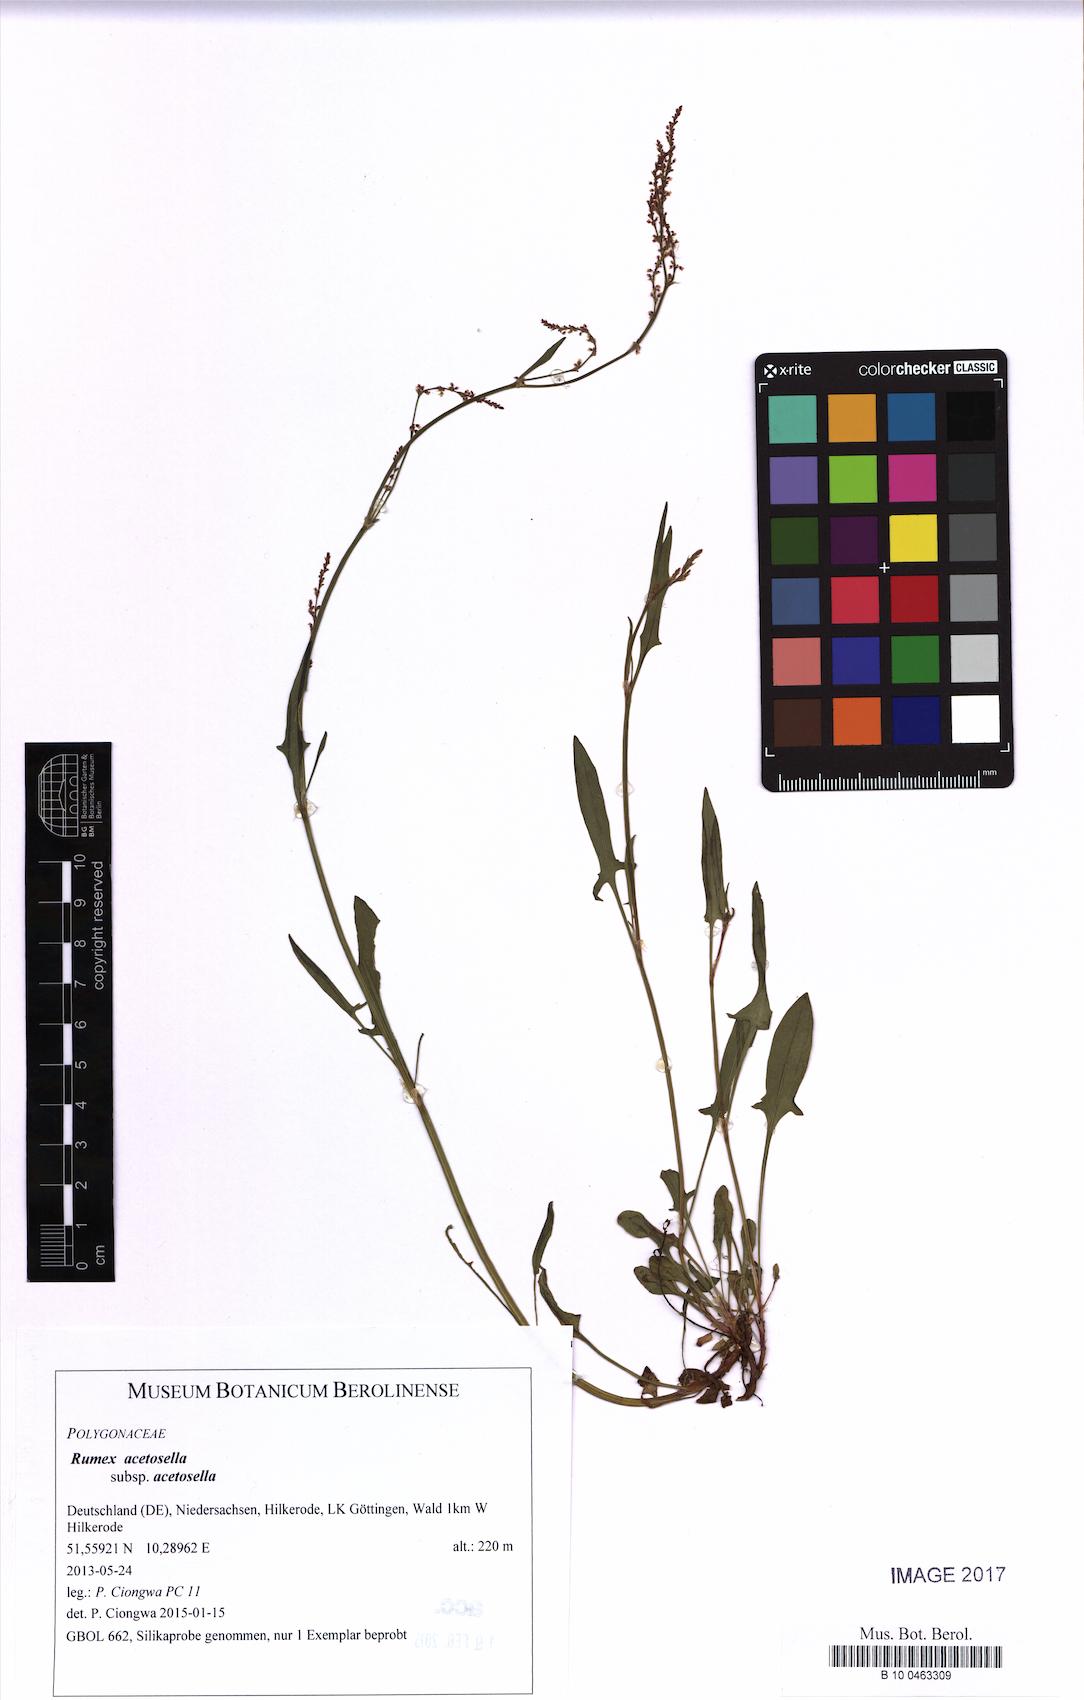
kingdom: Plantae
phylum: Tracheophyta
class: Magnoliopsida
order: Caryophyllales
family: Polygonaceae
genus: Rumex
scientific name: Rumex acetosella
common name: Common sheep sorrel
